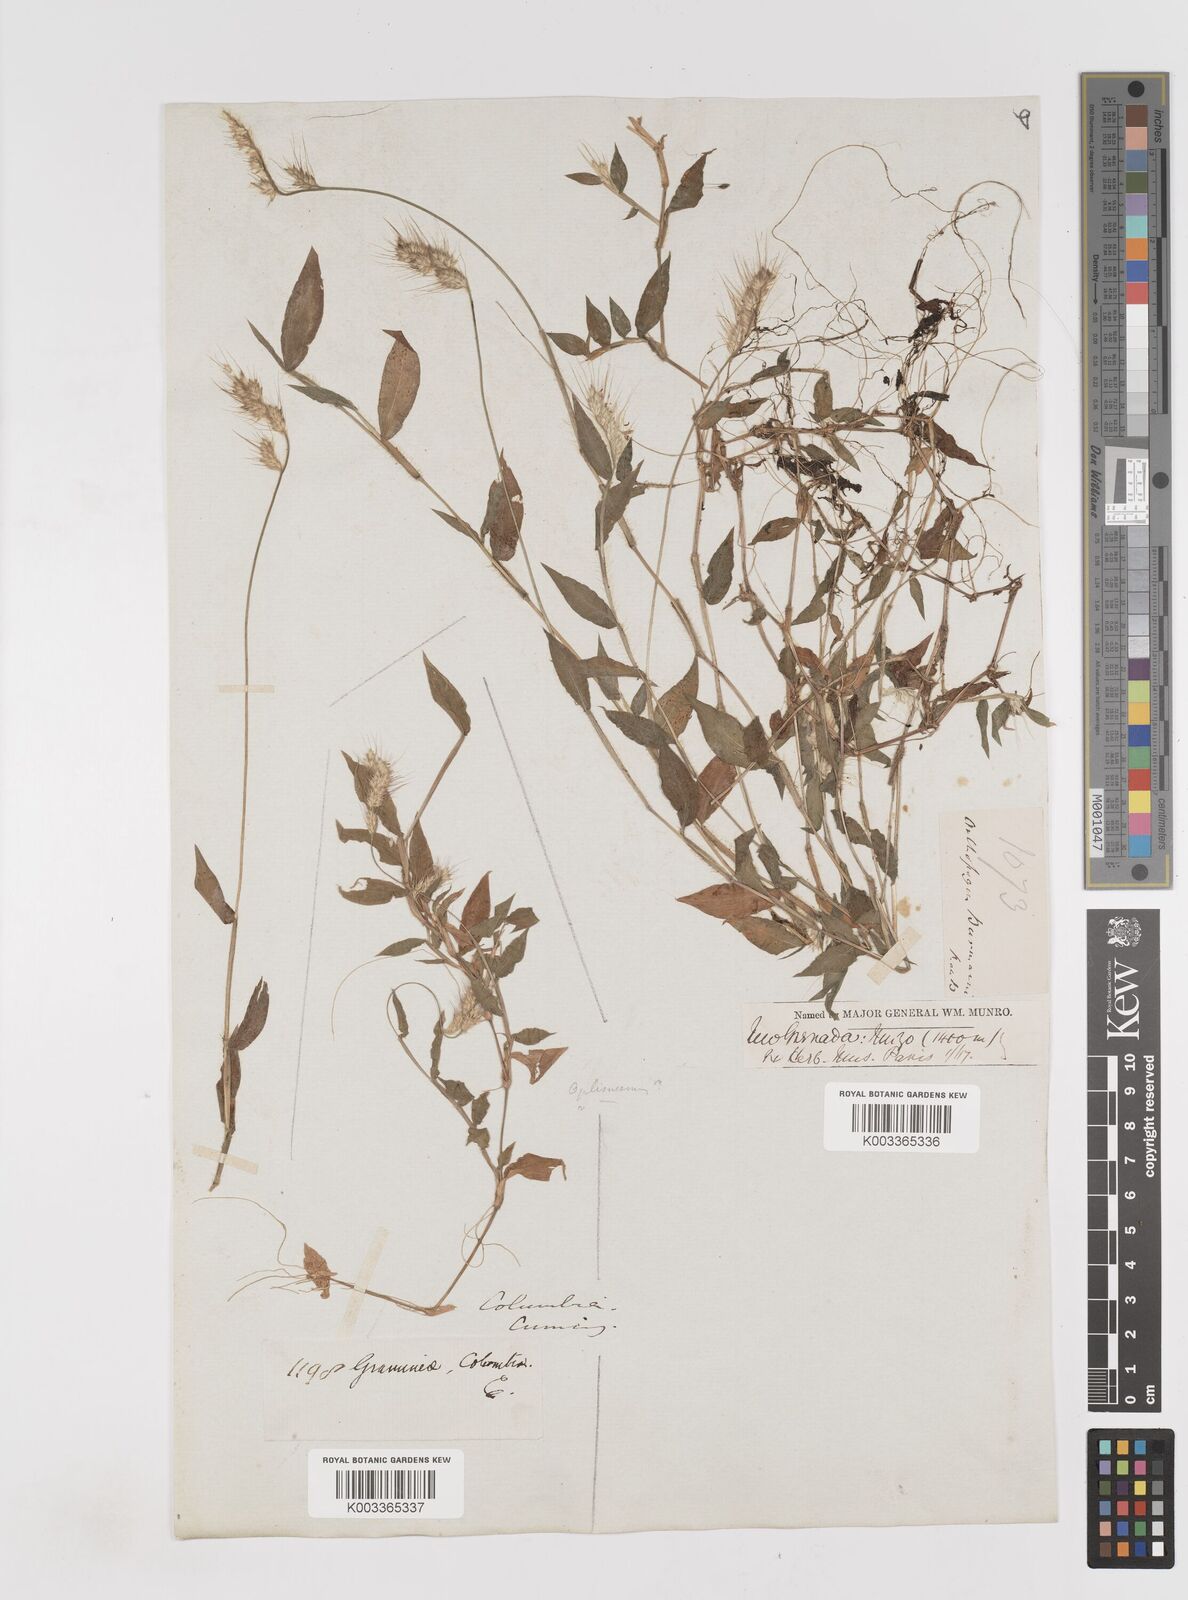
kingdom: Plantae
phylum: Tracheophyta
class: Liliopsida
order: Poales
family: Poaceae
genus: Oplismenus
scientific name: Oplismenus burmanni
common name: Burmann's basketgrass
